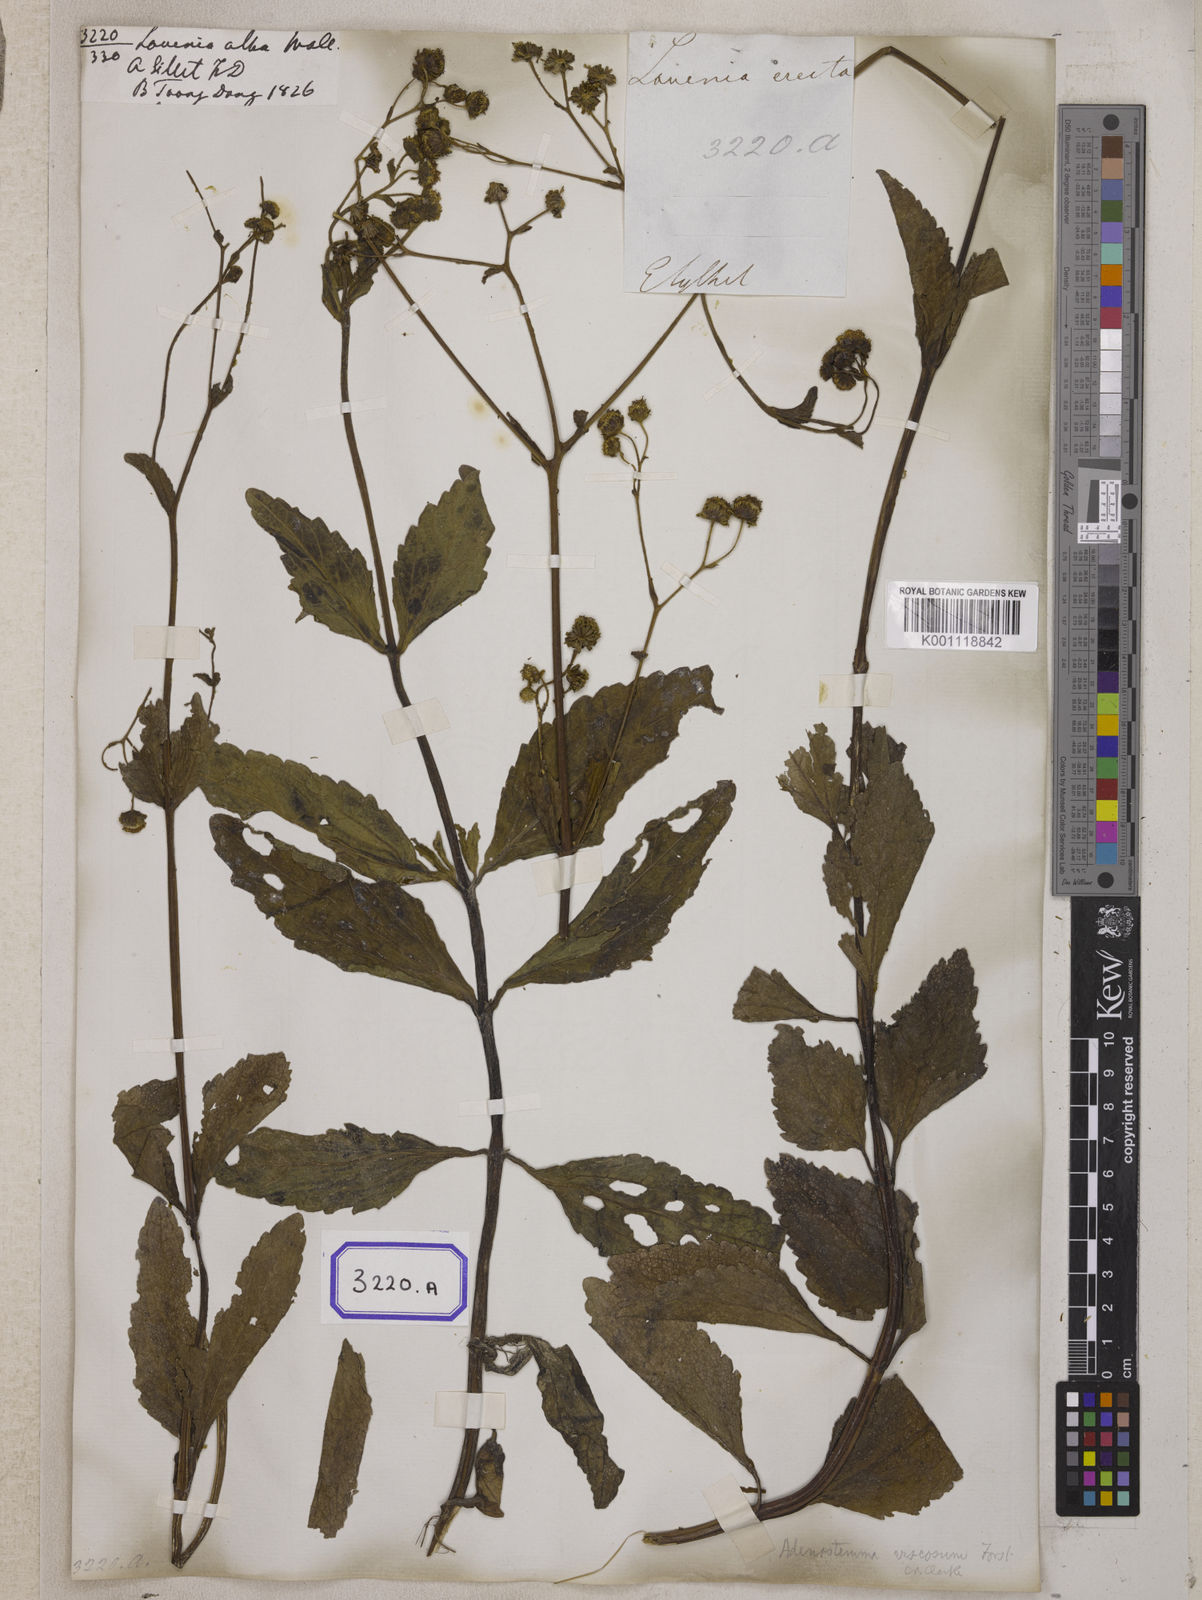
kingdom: Plantae
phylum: Tracheophyta
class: Magnoliopsida
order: Asterales
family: Asteraceae
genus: Adenostemma
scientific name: Adenostemma viscosum
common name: Dungweed
